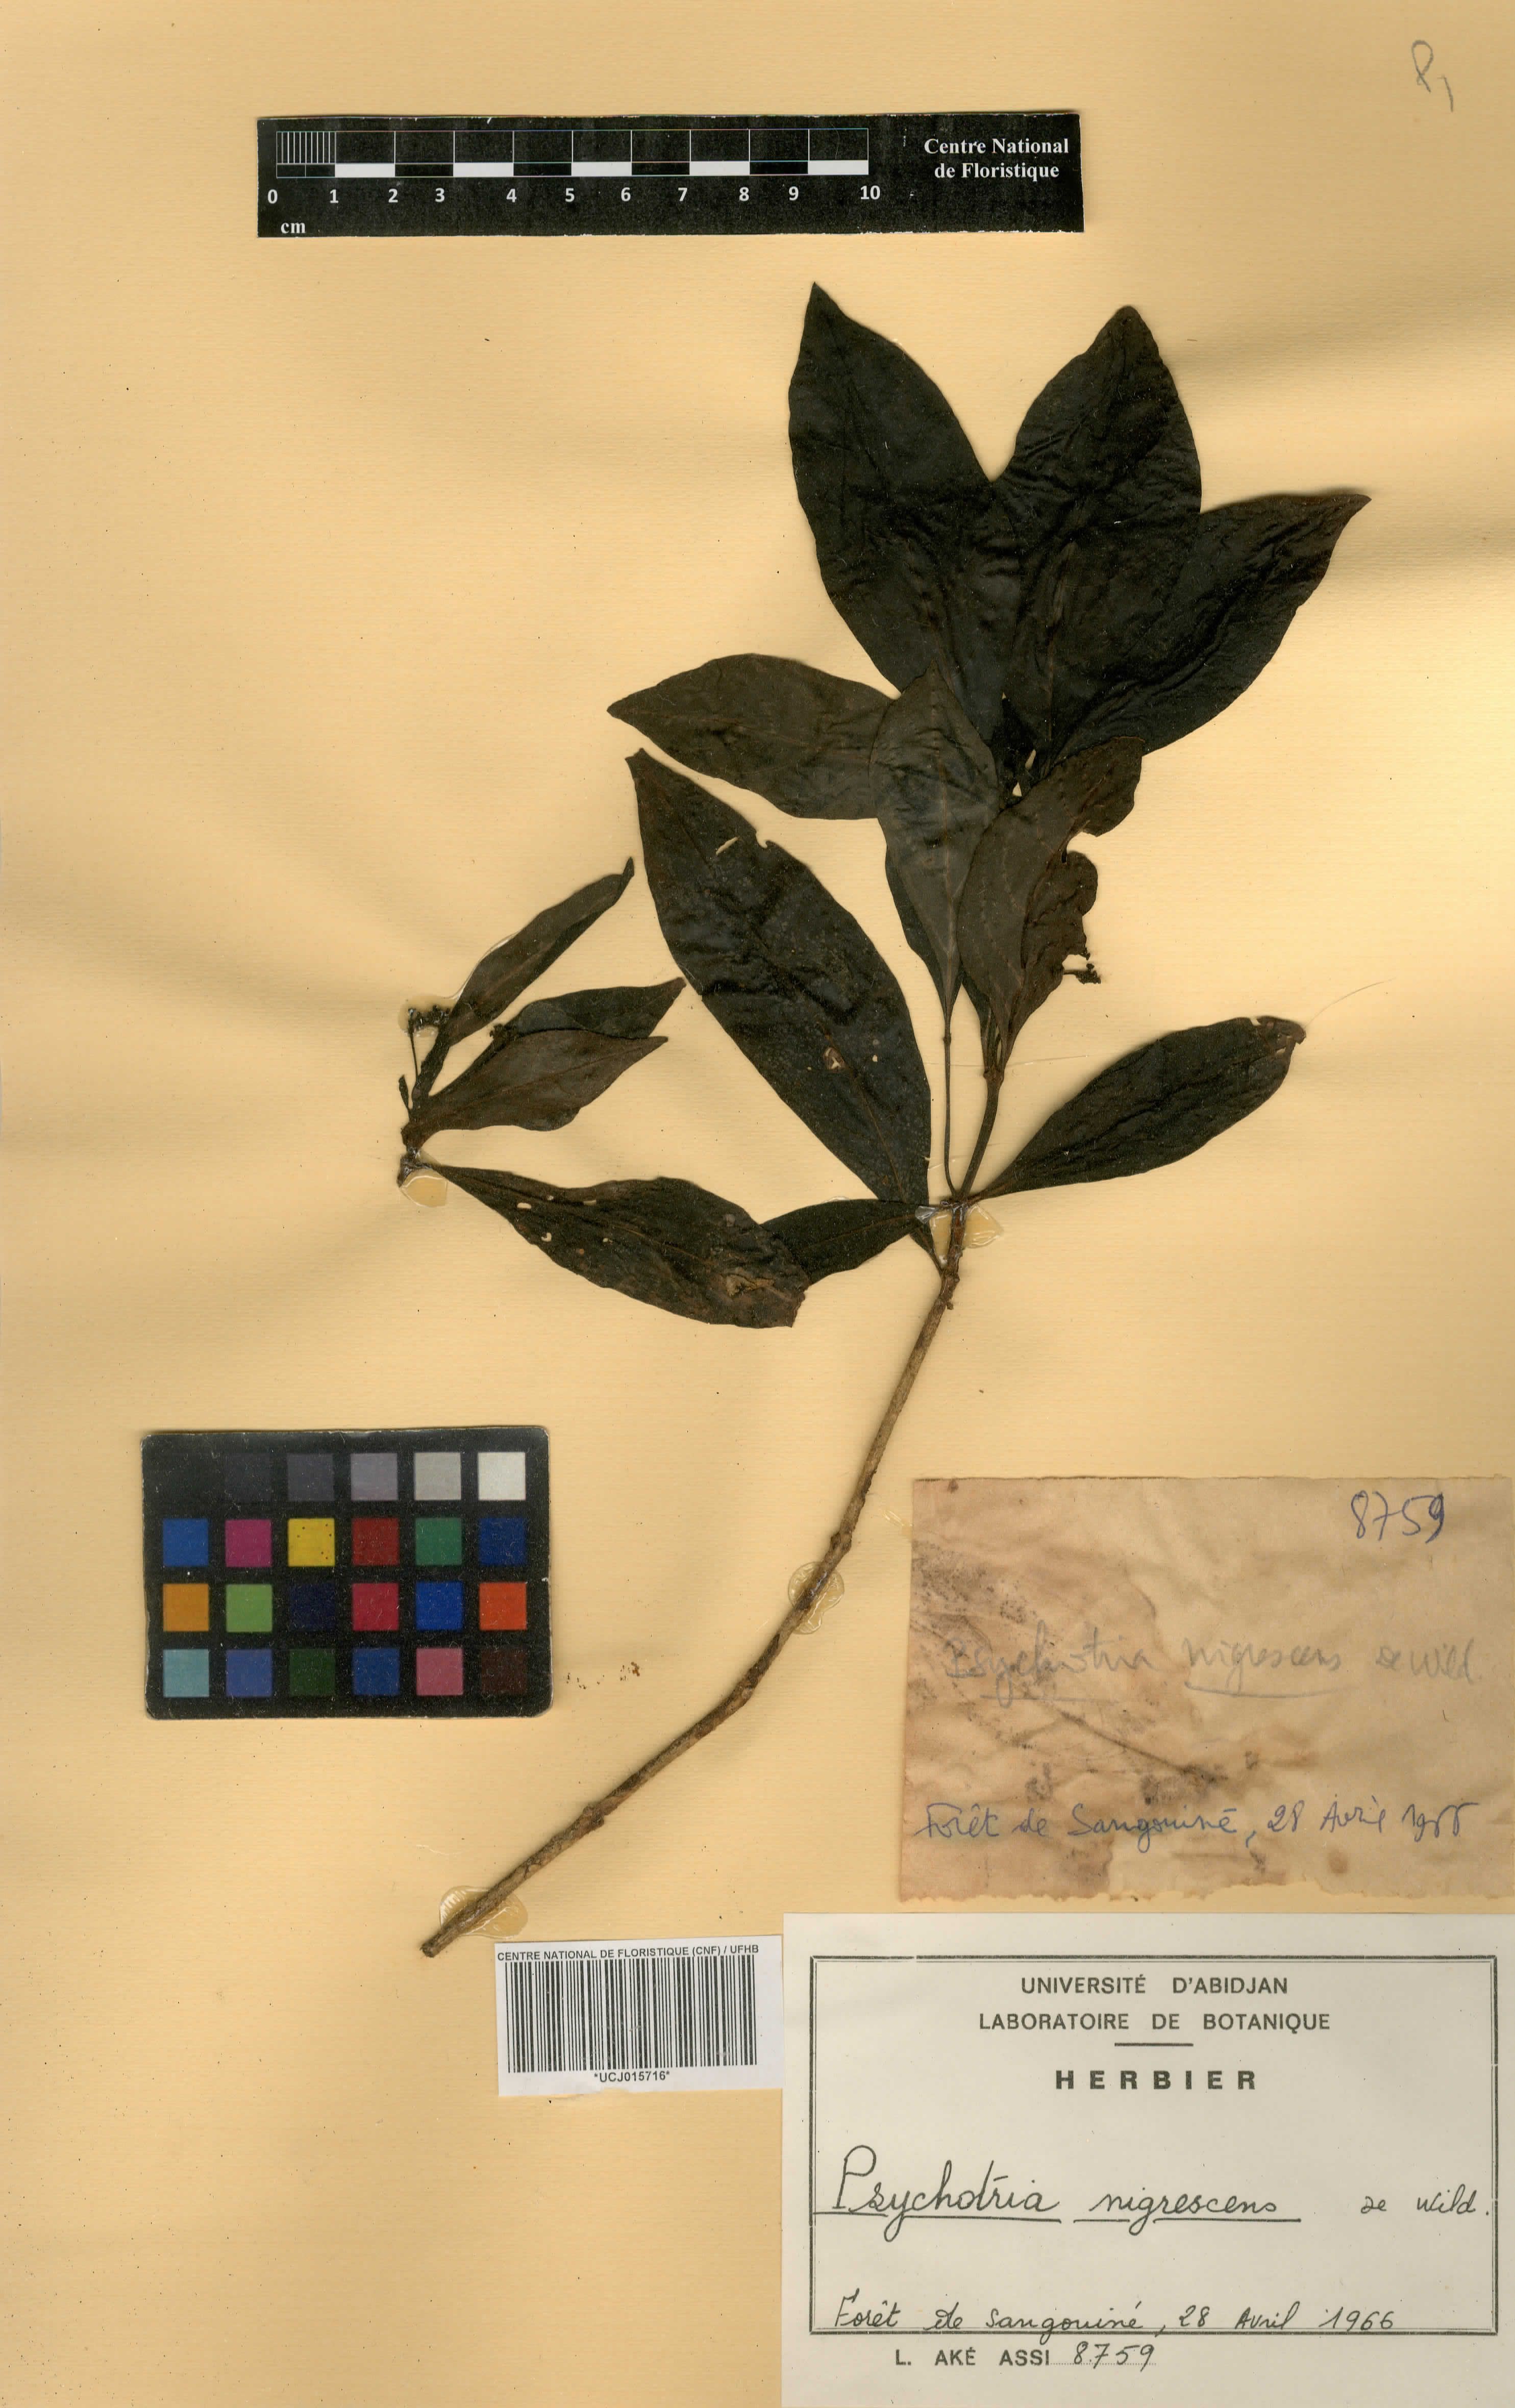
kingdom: Plantae
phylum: Tracheophyta
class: Magnoliopsida
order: Gentianales
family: Rubiaceae
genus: Psychotria
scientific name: Psychotria nigrescens
